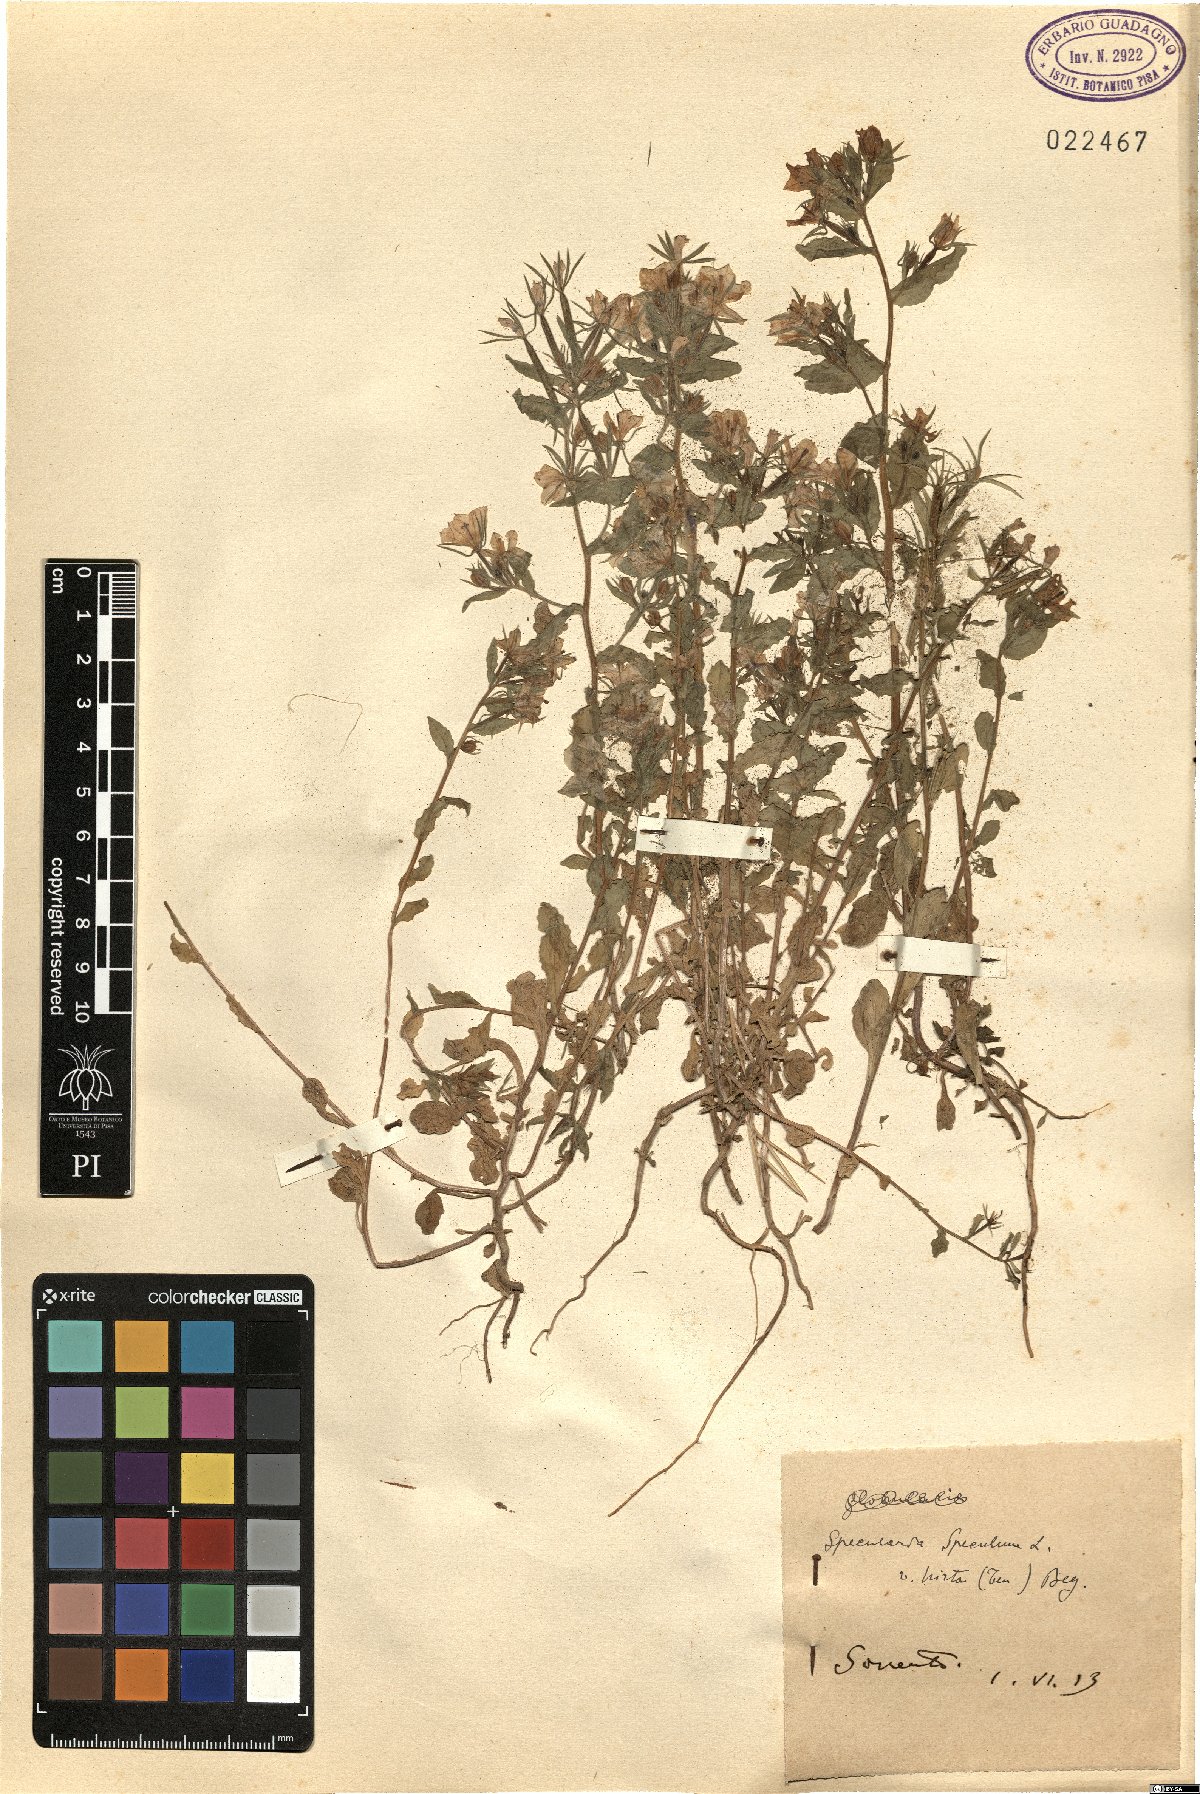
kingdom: Plantae
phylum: Tracheophyta
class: Magnoliopsida
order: Asterales
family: Campanulaceae
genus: Legousia
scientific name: Legousia speculum-veneris
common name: Large venus's-looking-glass
